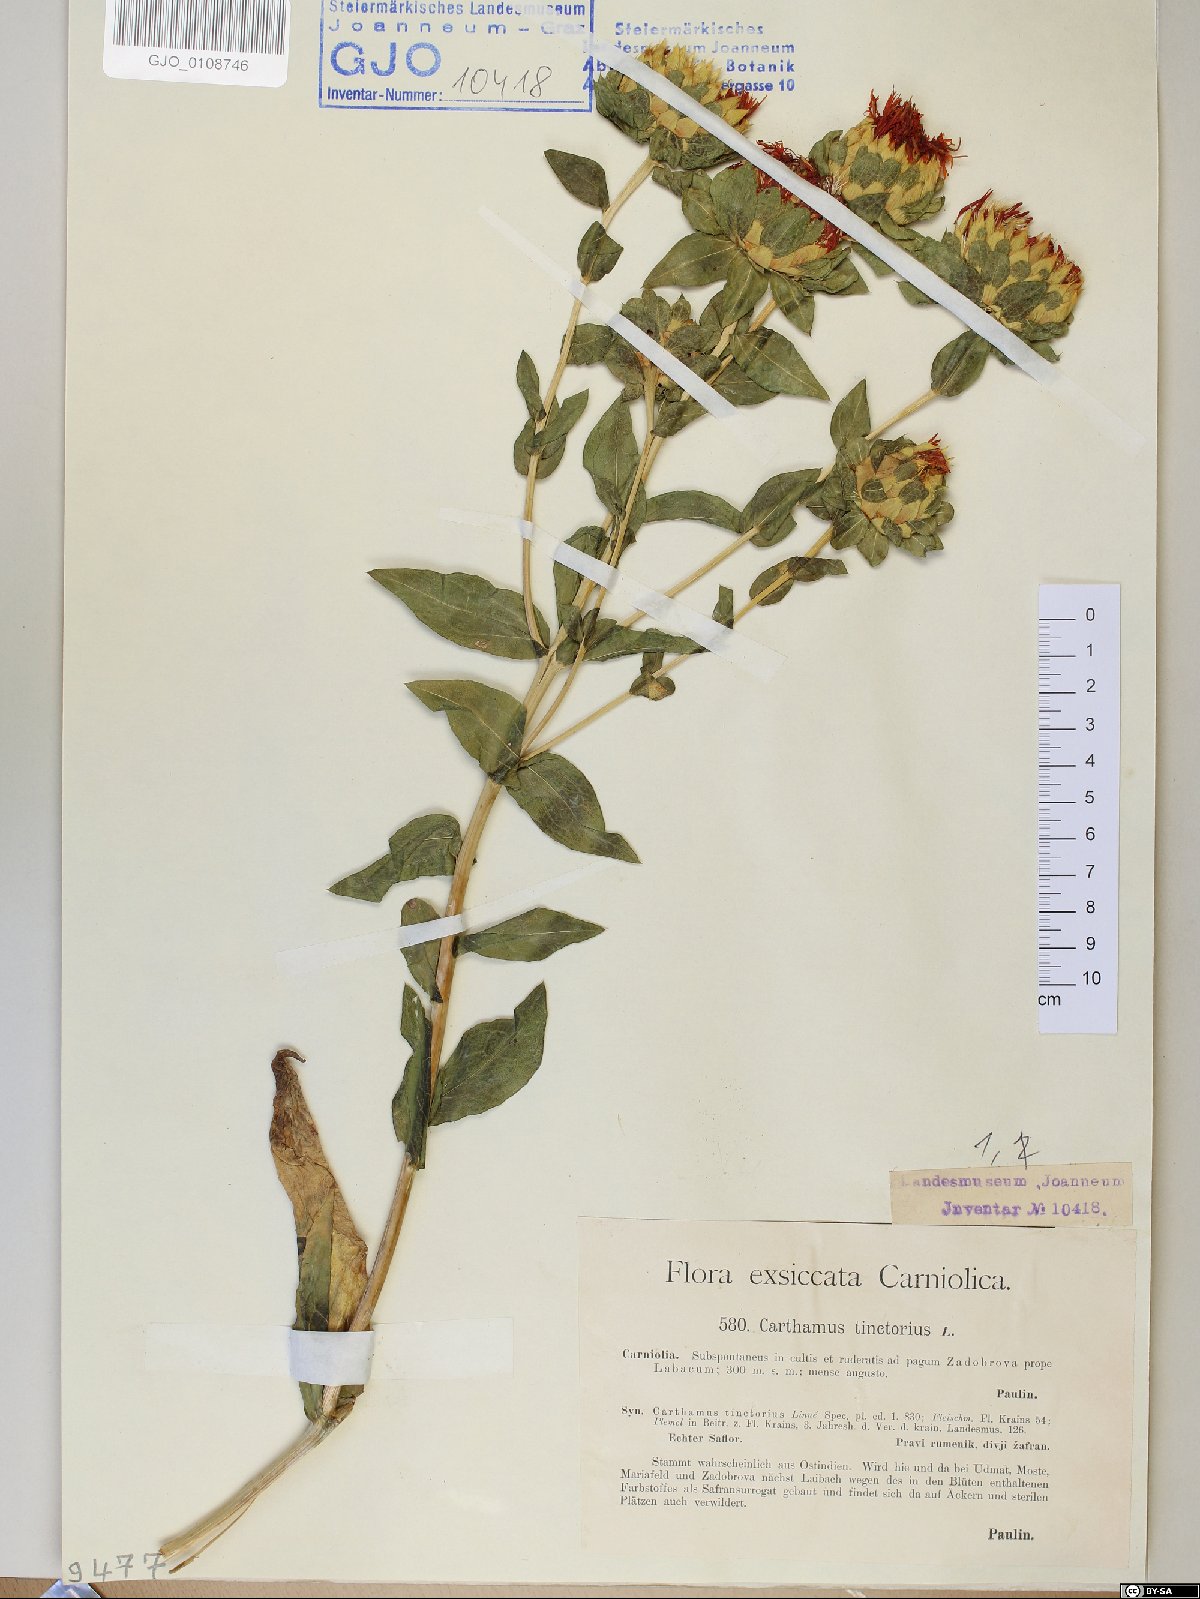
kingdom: Plantae
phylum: Tracheophyta
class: Magnoliopsida
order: Asterales
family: Asteraceae
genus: Carthamus
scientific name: Carthamus tinctorius
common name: Safflower
